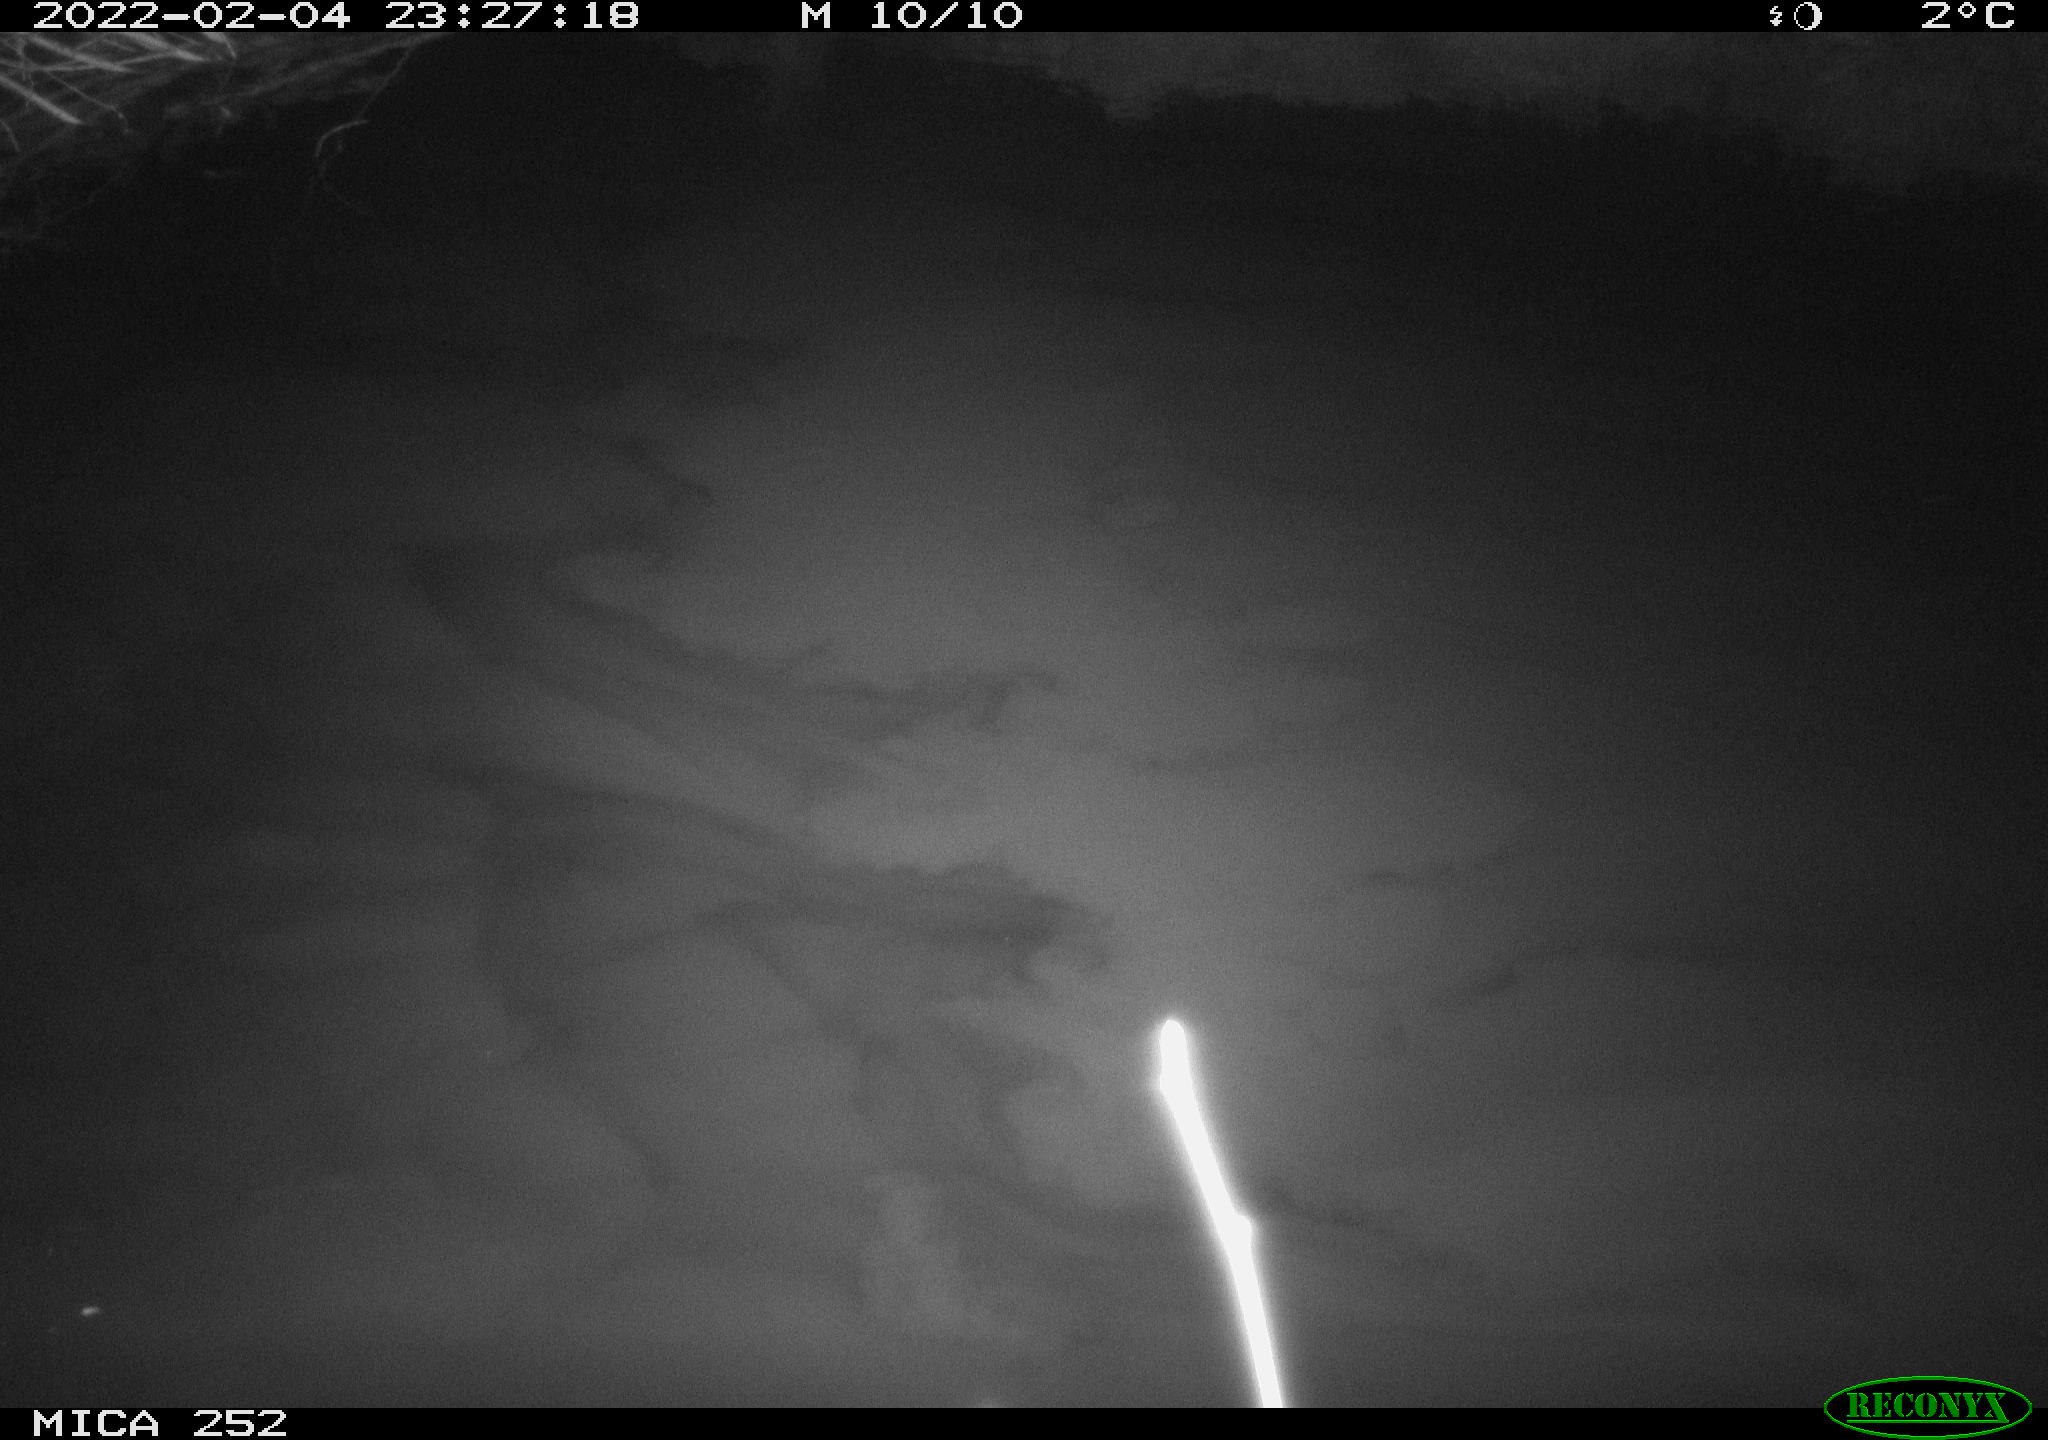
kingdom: Animalia
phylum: Chordata
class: Mammalia
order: Rodentia
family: Castoridae
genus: Castor
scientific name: Castor fiber
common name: Eurasian beaver
